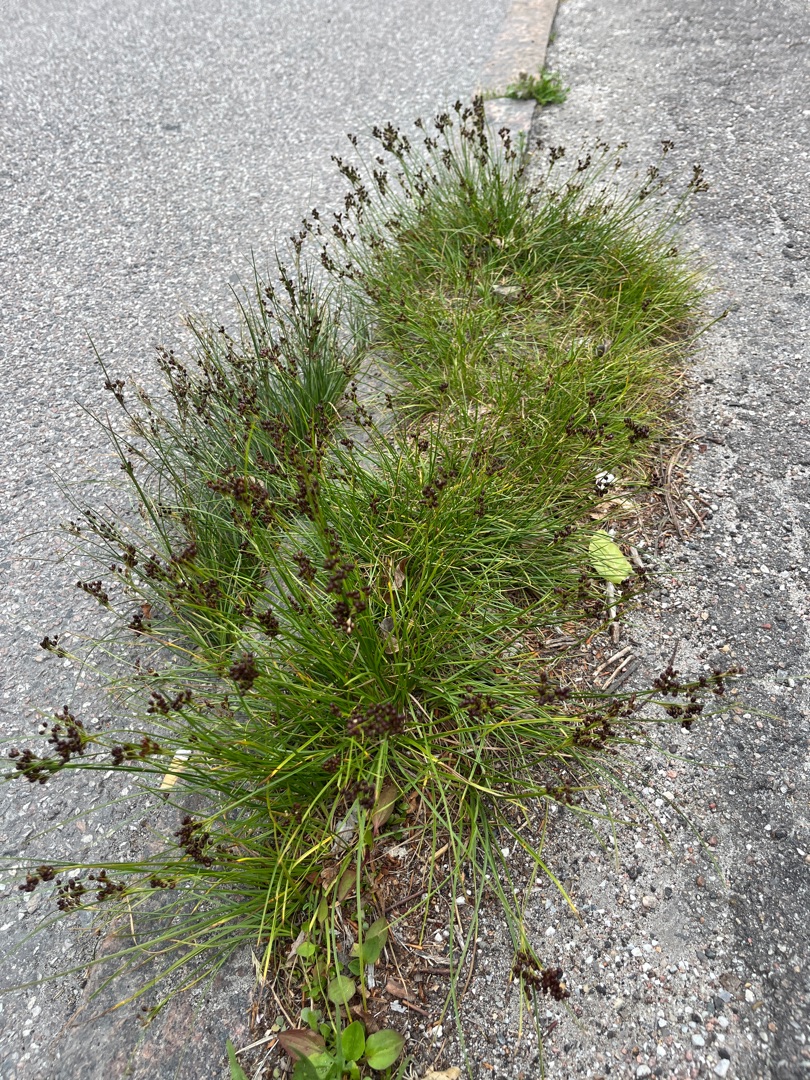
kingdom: Plantae
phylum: Tracheophyta
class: Liliopsida
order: Poales
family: Juncaceae
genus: Juncus
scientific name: Juncus compressus
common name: Fladstrået siv
